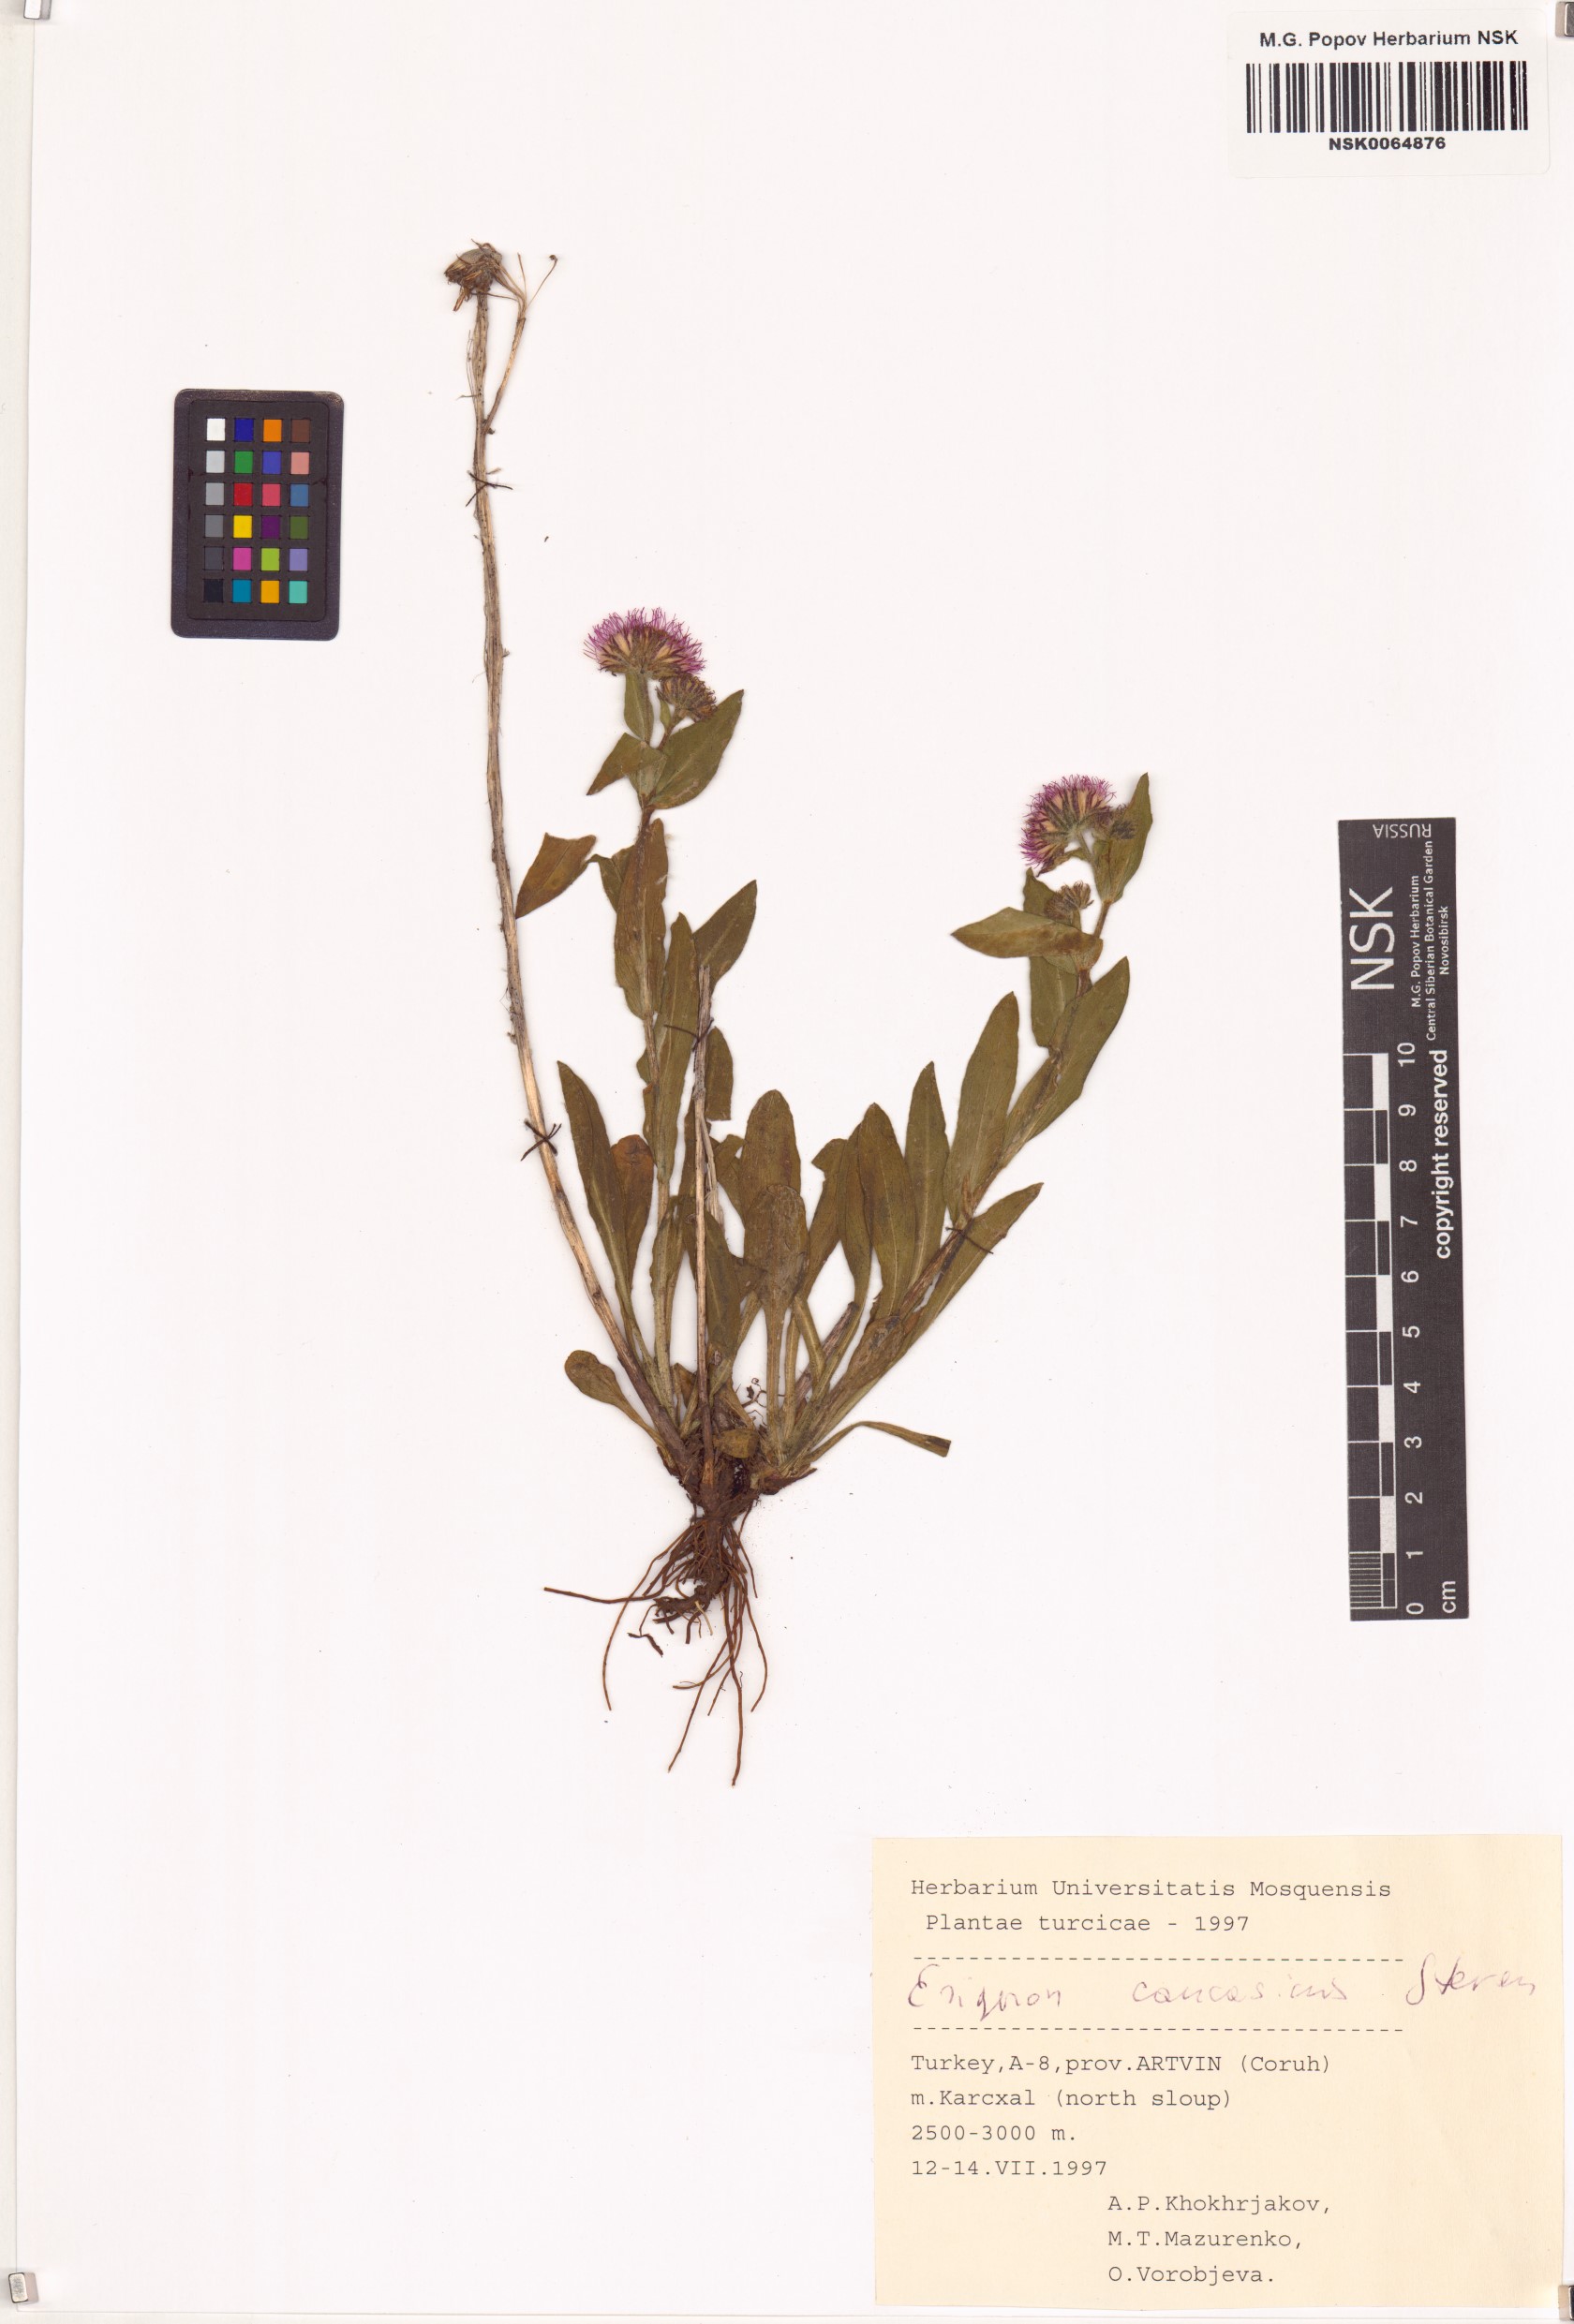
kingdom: Plantae
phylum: Tracheophyta
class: Magnoliopsida
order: Asterales
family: Asteraceae
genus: Erigeron
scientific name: Erigeron caucasicus
